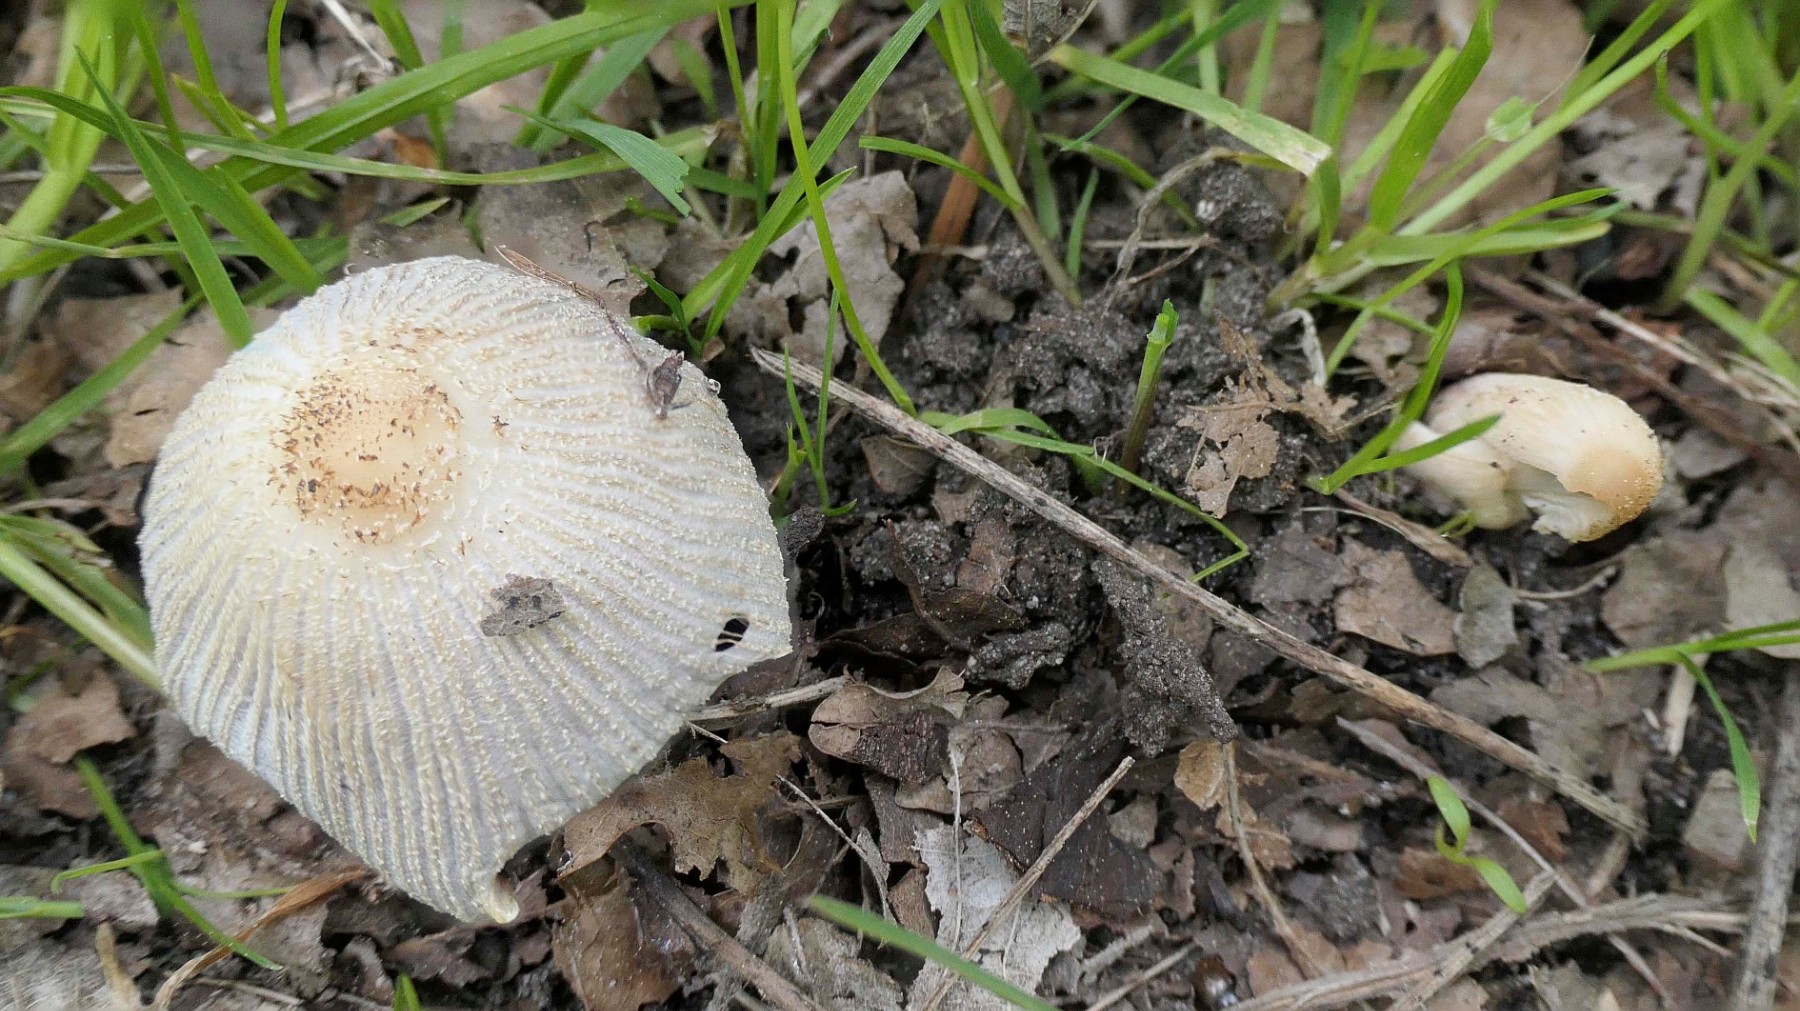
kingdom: Fungi
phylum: Basidiomycota
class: Agaricomycetes
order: Agaricales
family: Psathyrellaceae
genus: Coprinellus
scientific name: Coprinellus xanthothrix
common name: gultrådet blækhat
